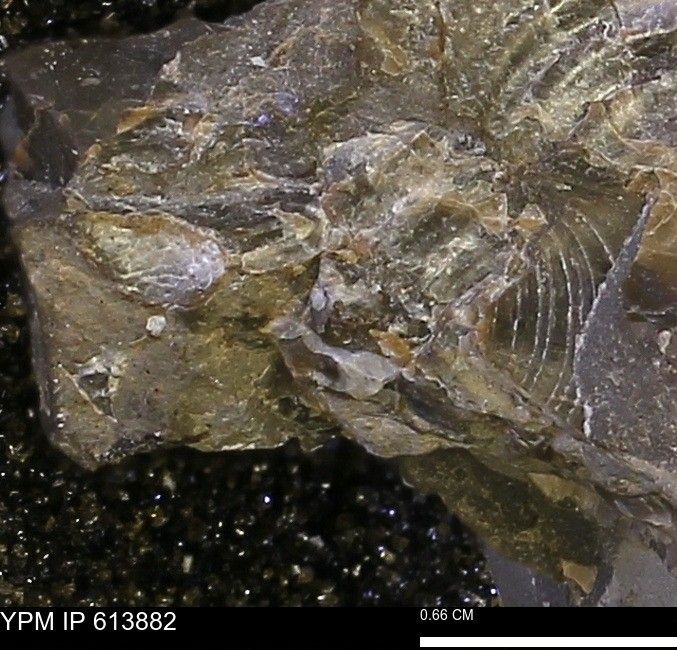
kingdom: Animalia
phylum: Mollusca
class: Bivalvia
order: Myalinida
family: Inoceramidae
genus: Inoceramus
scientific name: Inoceramus
